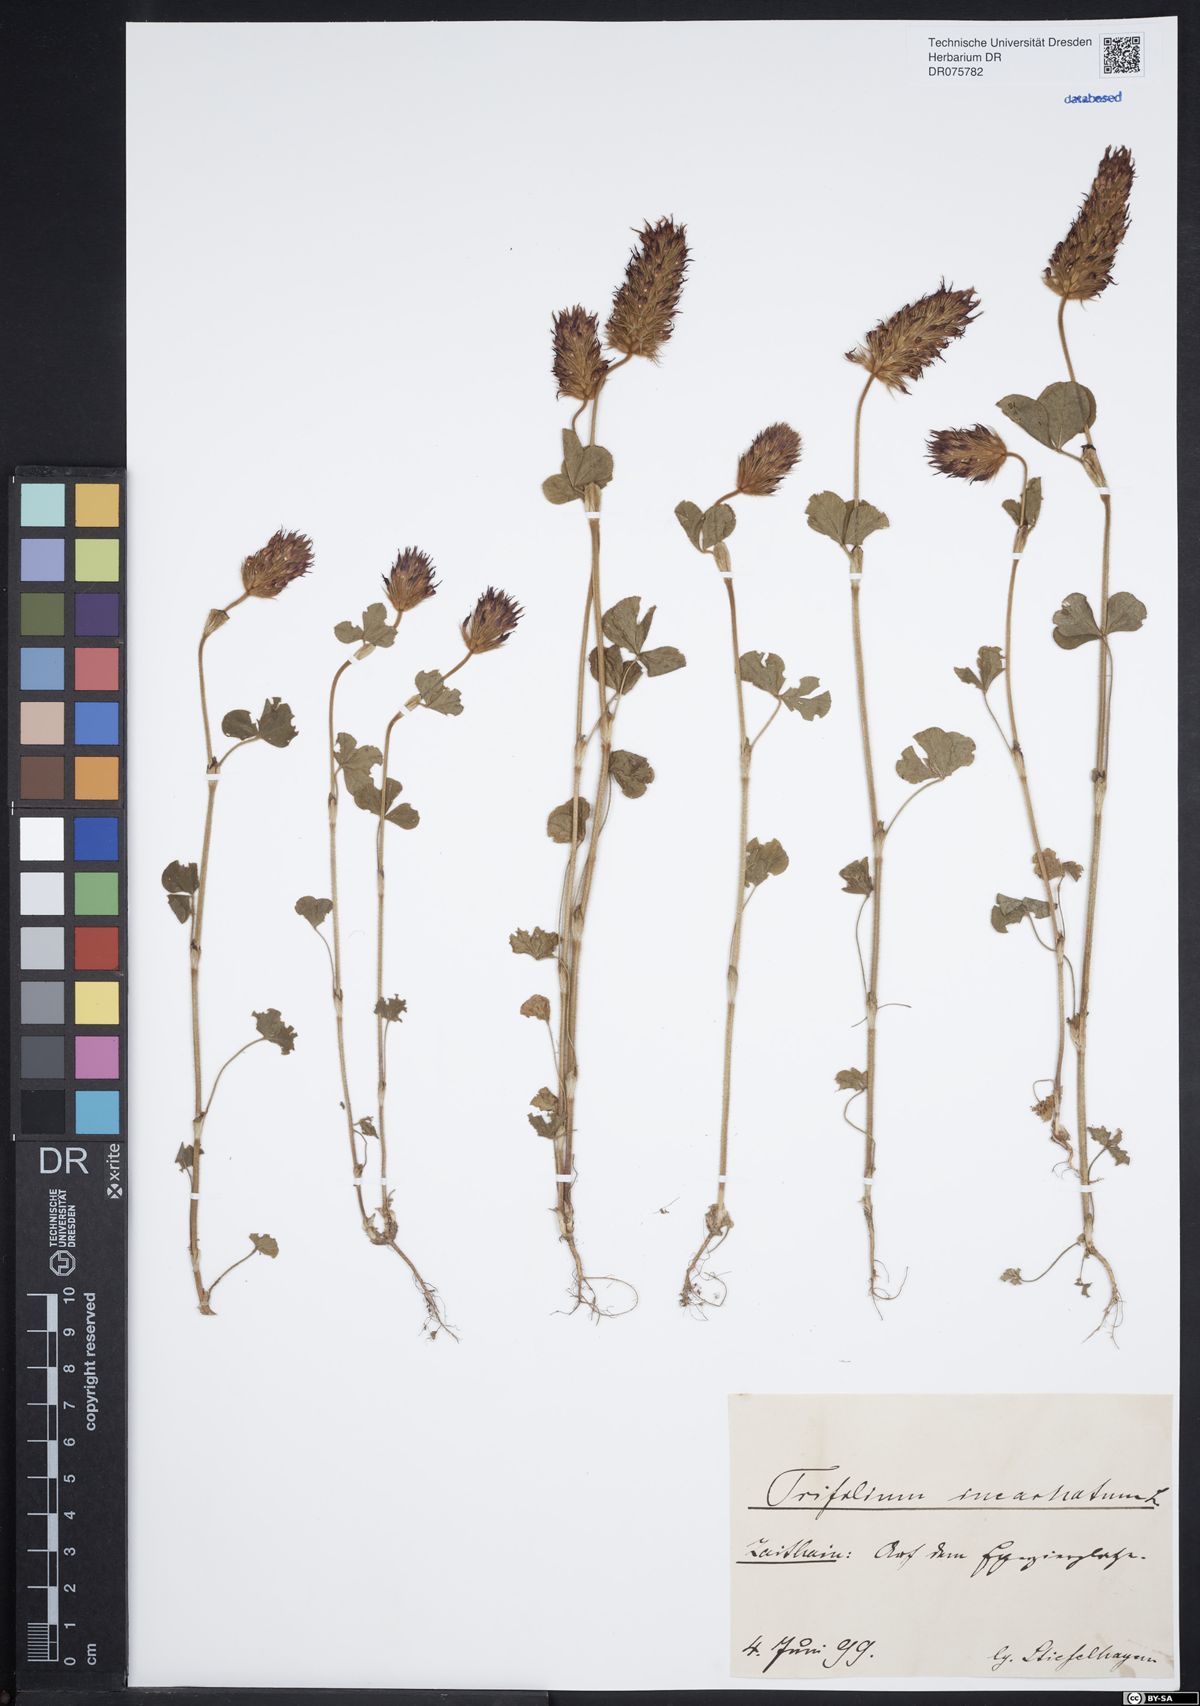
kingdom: Plantae
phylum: Tracheophyta
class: Magnoliopsida
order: Fabales
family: Fabaceae
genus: Trifolium
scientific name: Trifolium incarnatum
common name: Crimson clover
